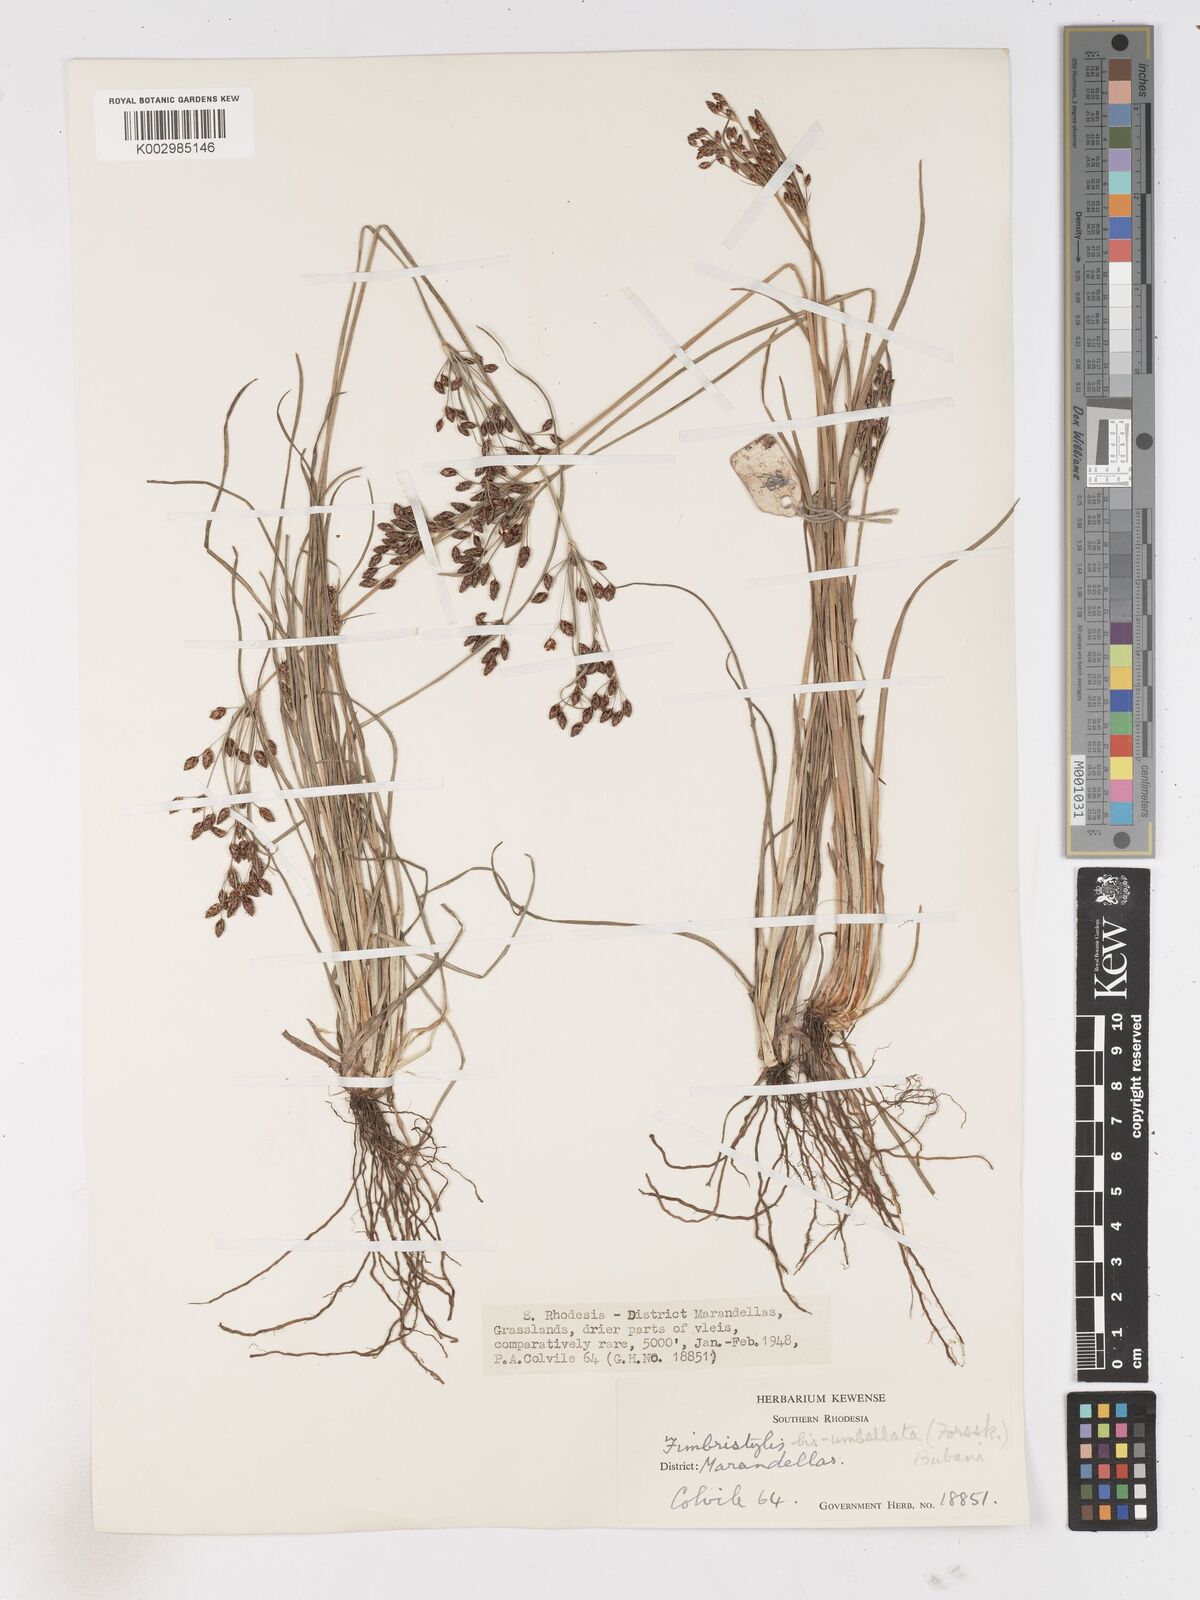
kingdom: Plantae
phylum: Tracheophyta
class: Liliopsida
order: Poales
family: Cyperaceae
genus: Fimbristylis
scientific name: Fimbristylis dichotoma
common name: Forked fimbry
